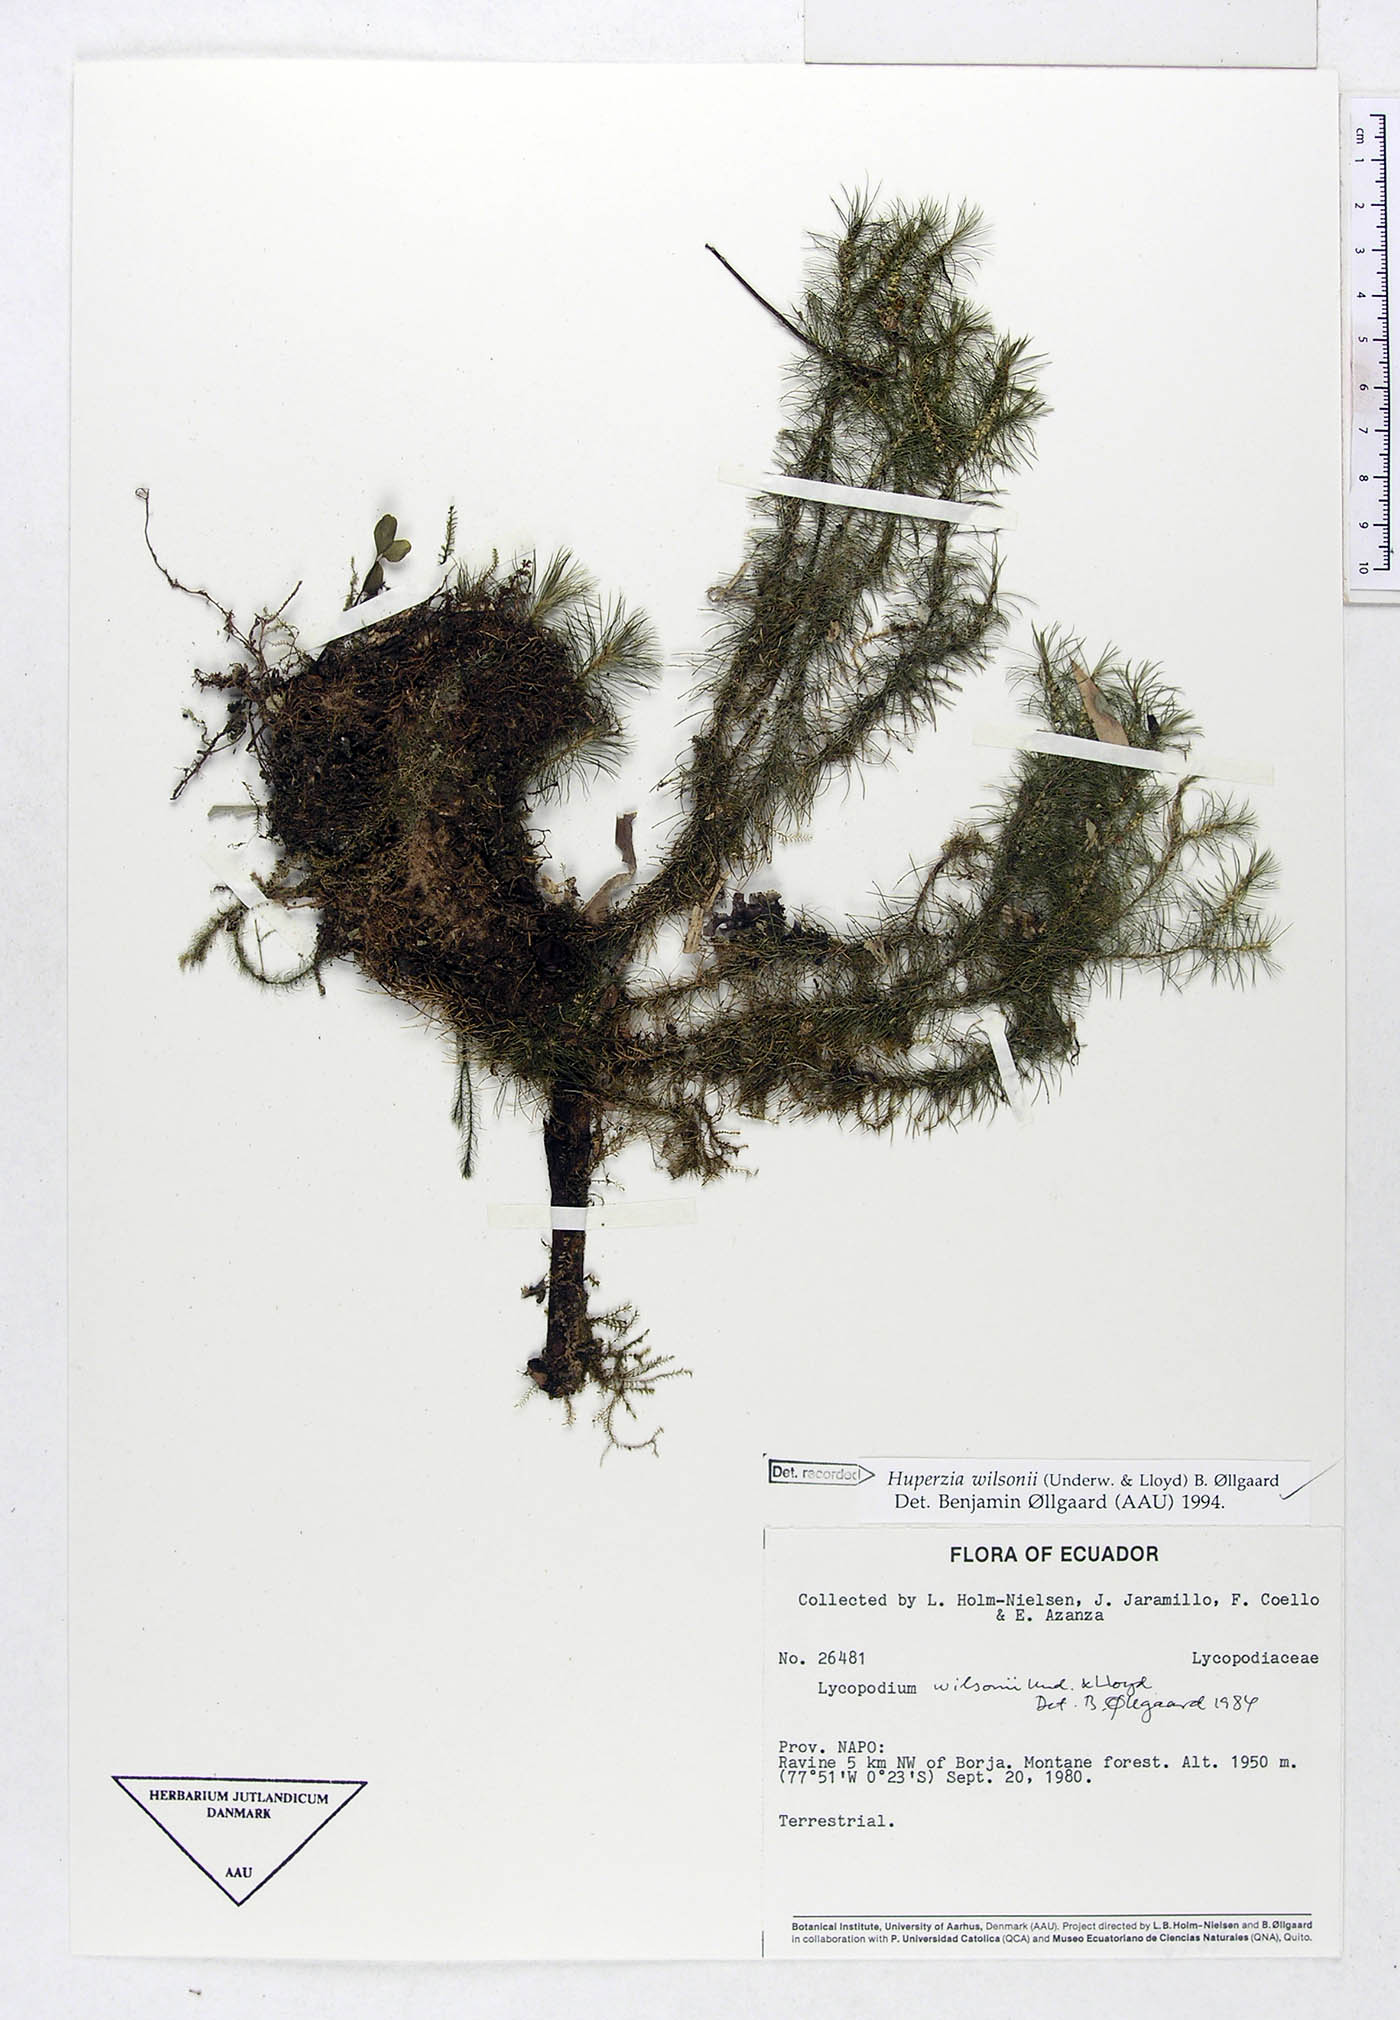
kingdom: Plantae
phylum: Tracheophyta
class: Lycopodiopsida
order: Lycopodiales
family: Lycopodiaceae
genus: Phlegmariurus
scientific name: Phlegmariurus wilsonii
